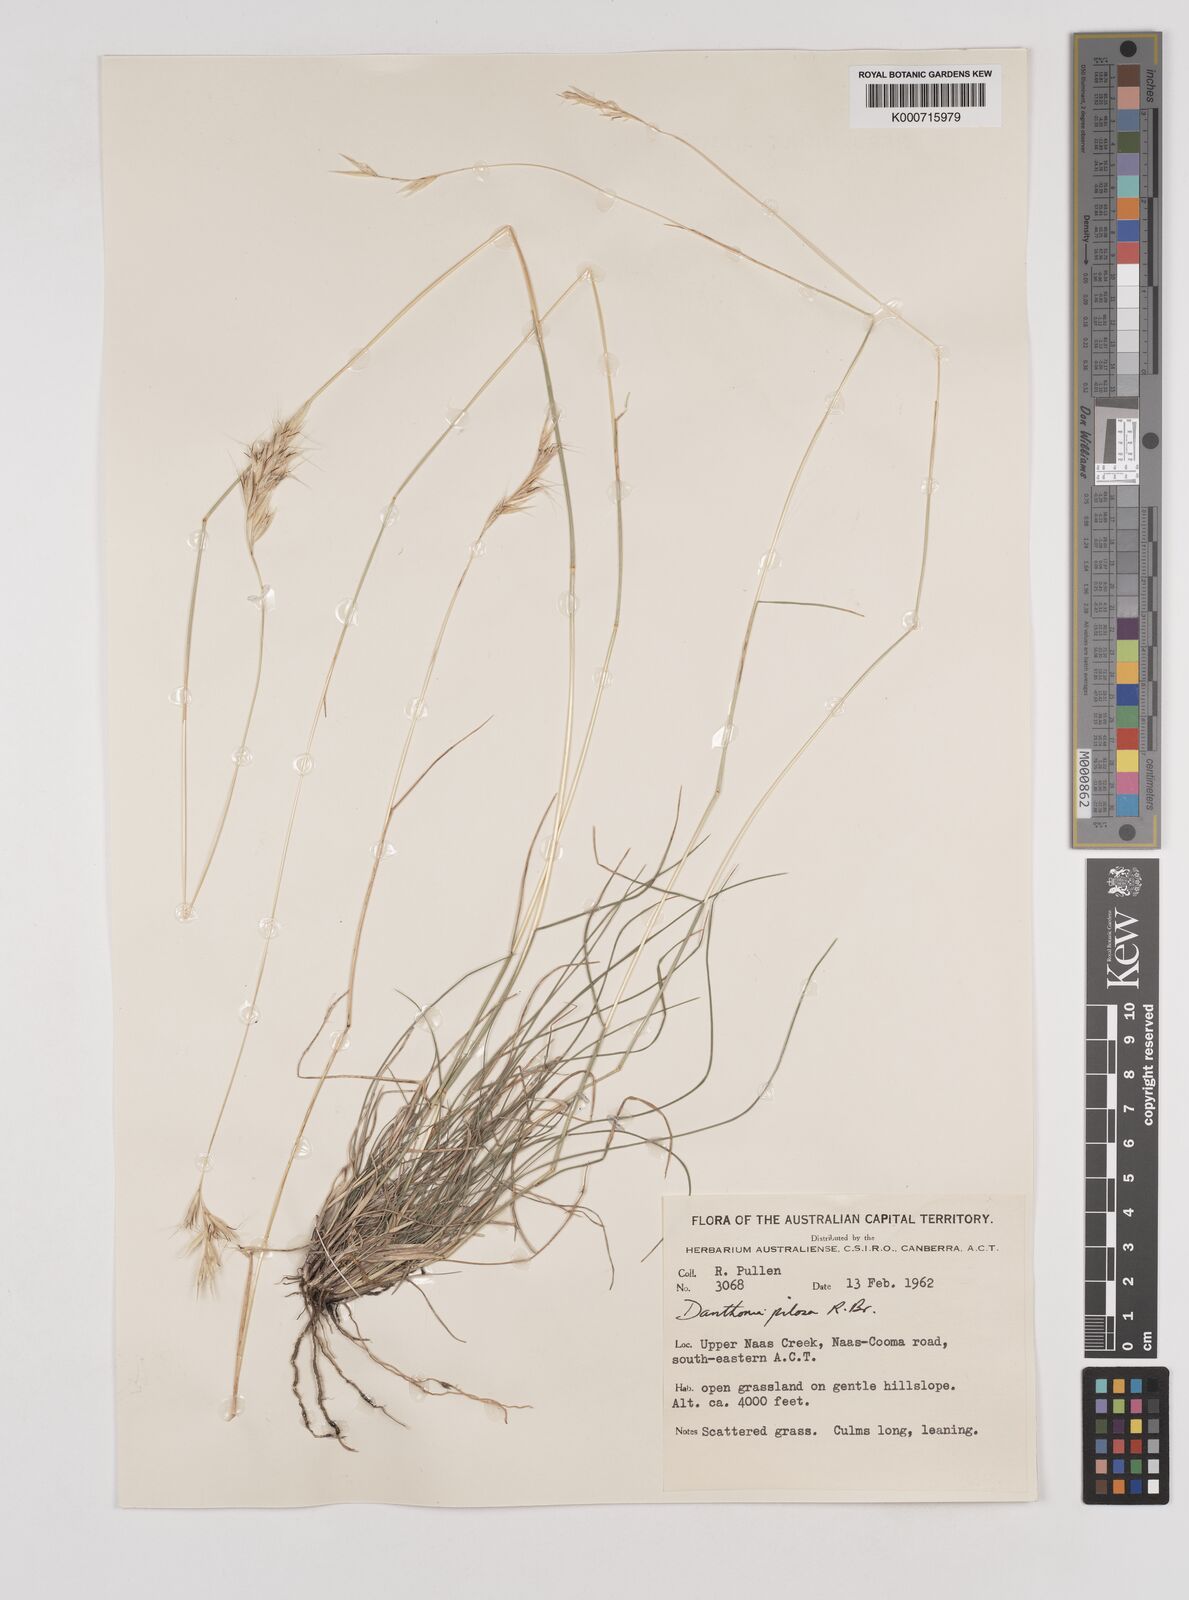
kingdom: Plantae
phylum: Tracheophyta
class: Liliopsida
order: Poales
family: Poaceae
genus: Rytidosperma
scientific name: Rytidosperma pilosum
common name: Hairy wallaby grass
